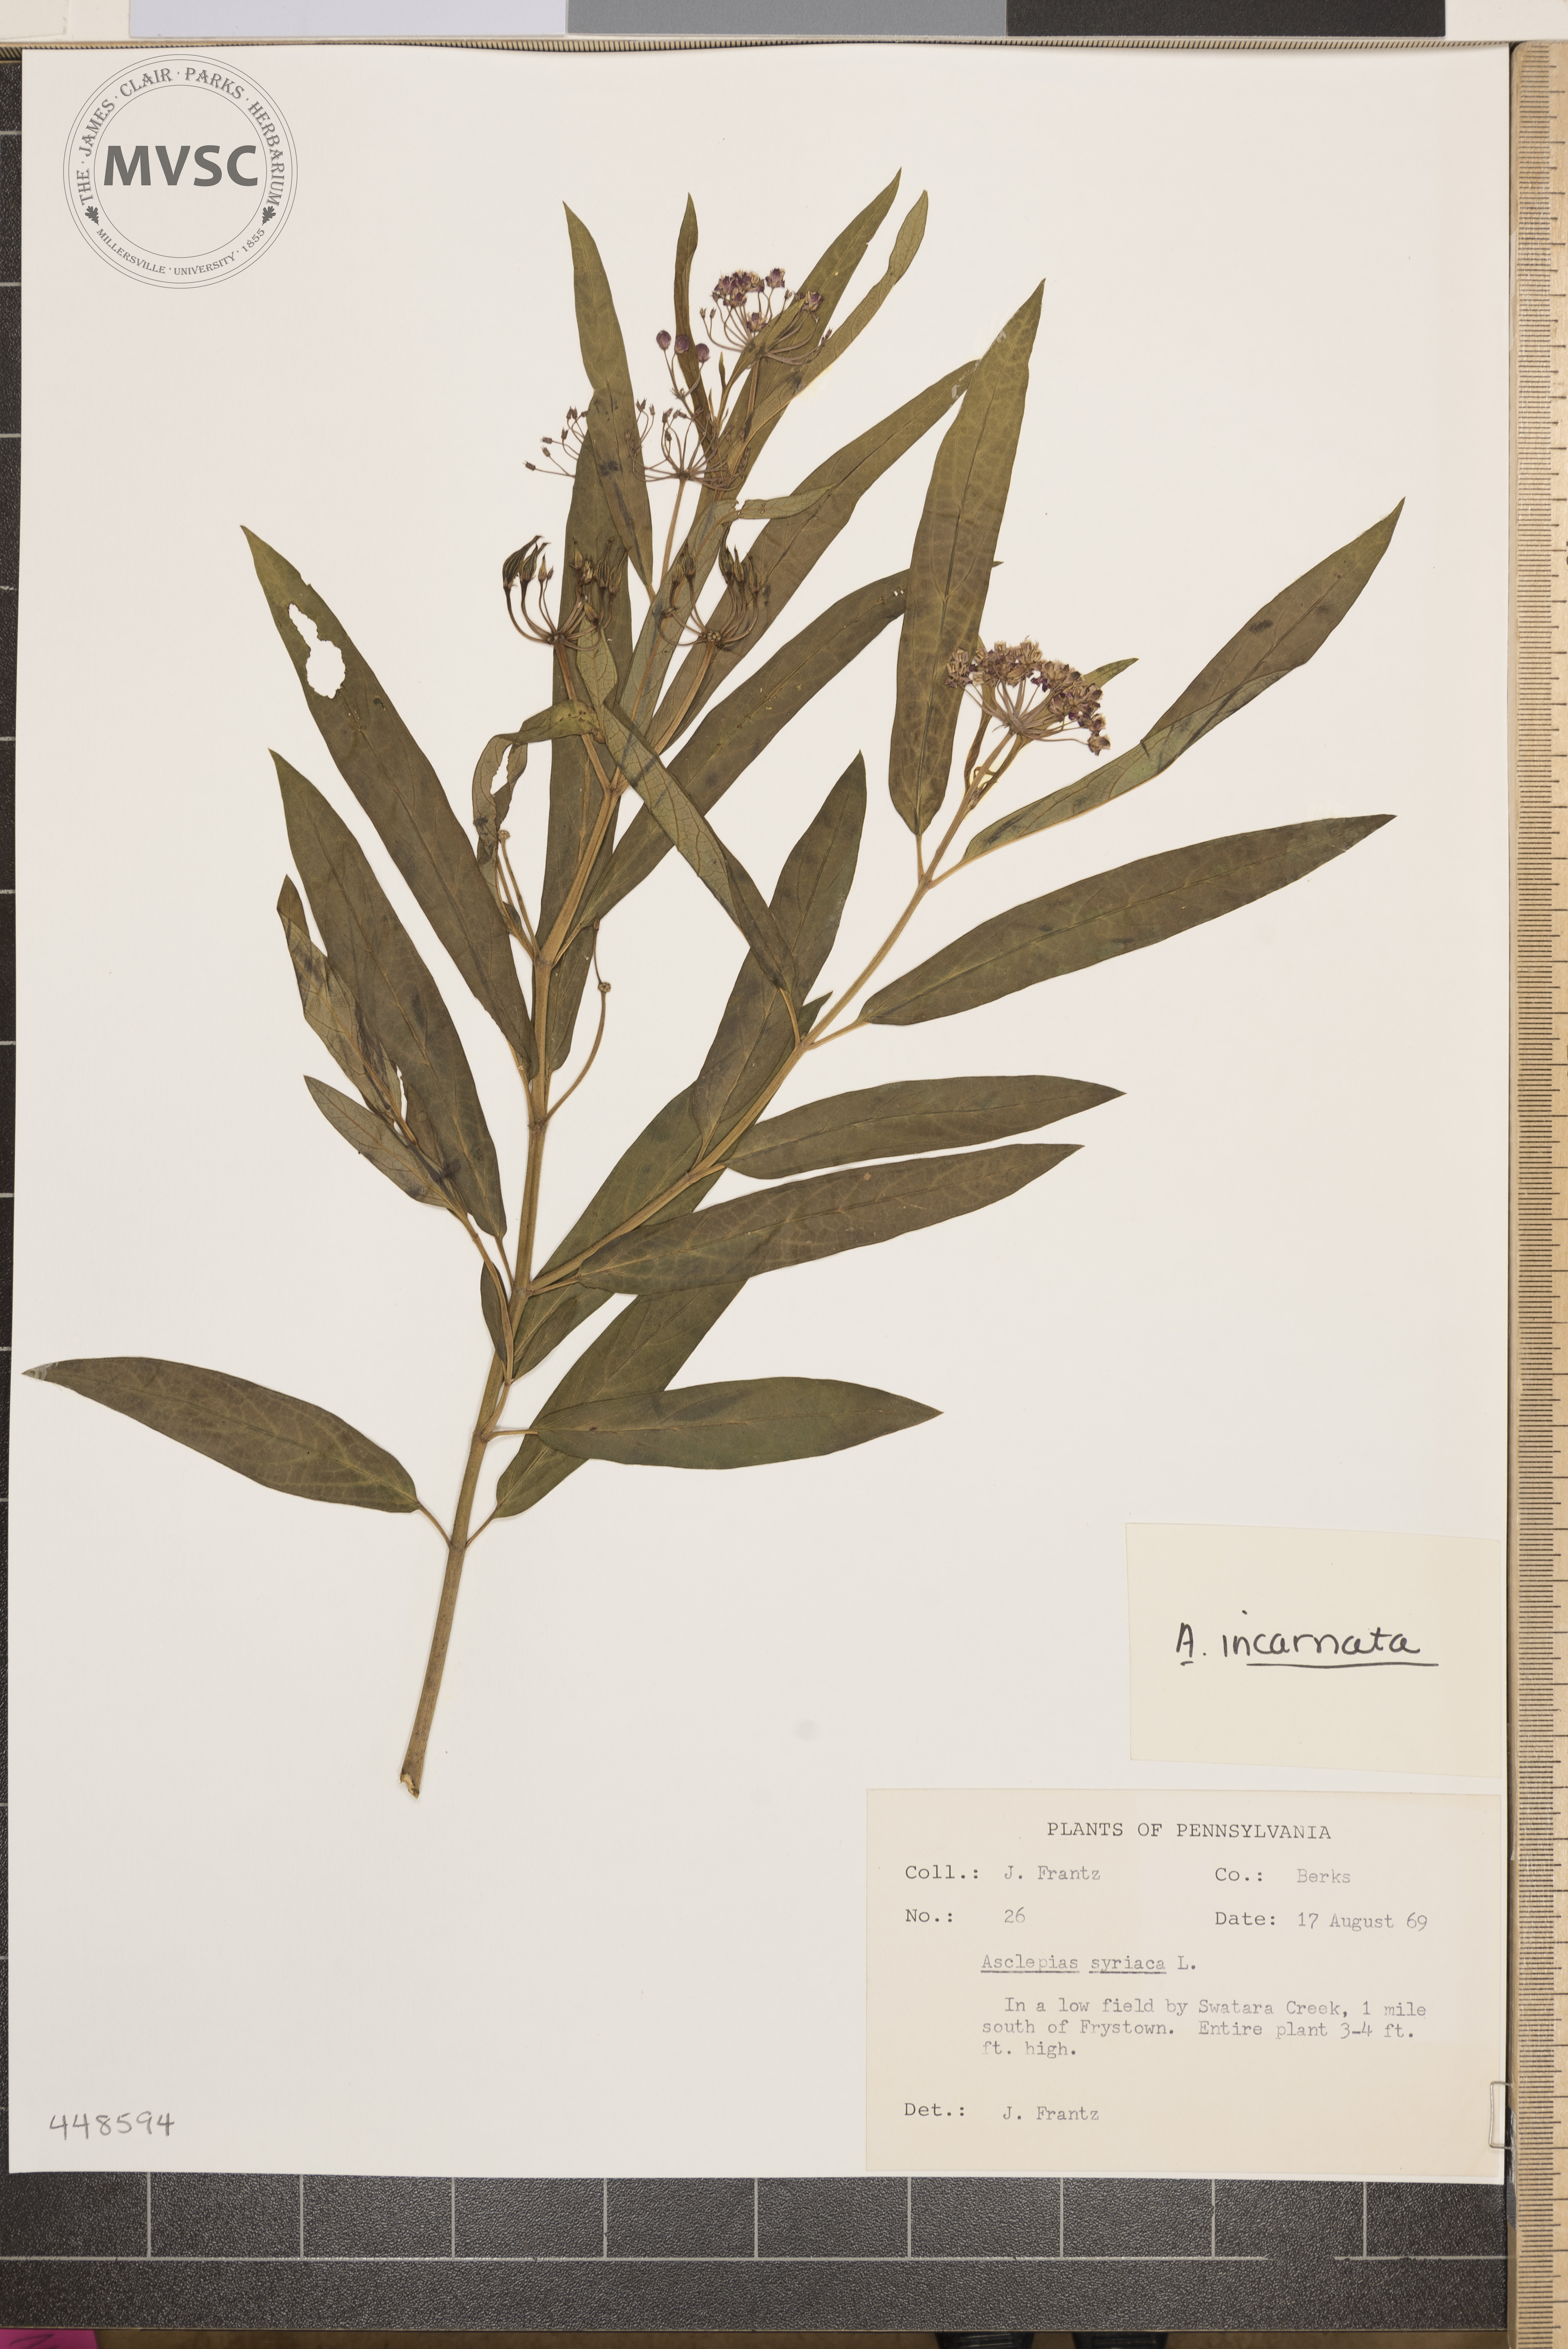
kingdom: Plantae
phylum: Tracheophyta
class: Magnoliopsida
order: Gentianales
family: Apocynaceae
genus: Asclepias
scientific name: Asclepias incarnata
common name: Swamp milkweed
